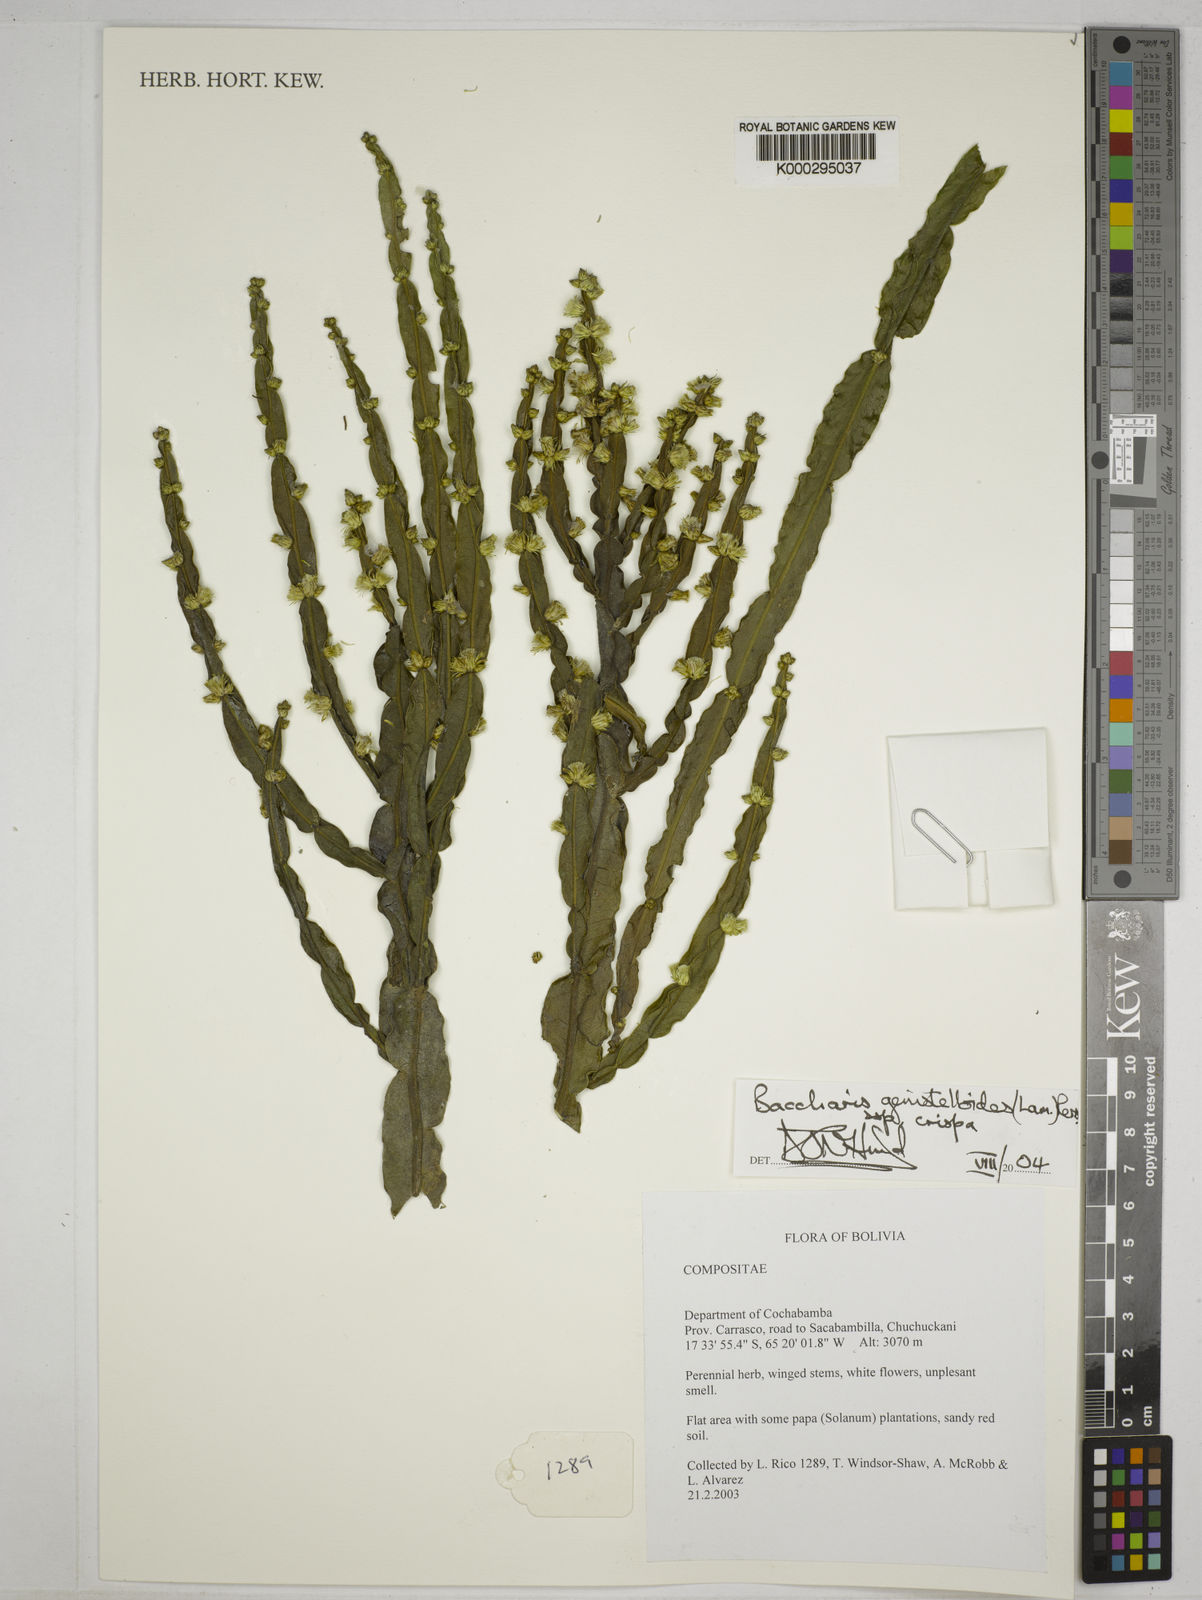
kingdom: Plantae
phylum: Tracheophyta
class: Magnoliopsida
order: Asterales
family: Asteraceae
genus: Baccharis
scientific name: Baccharis genistelloides
